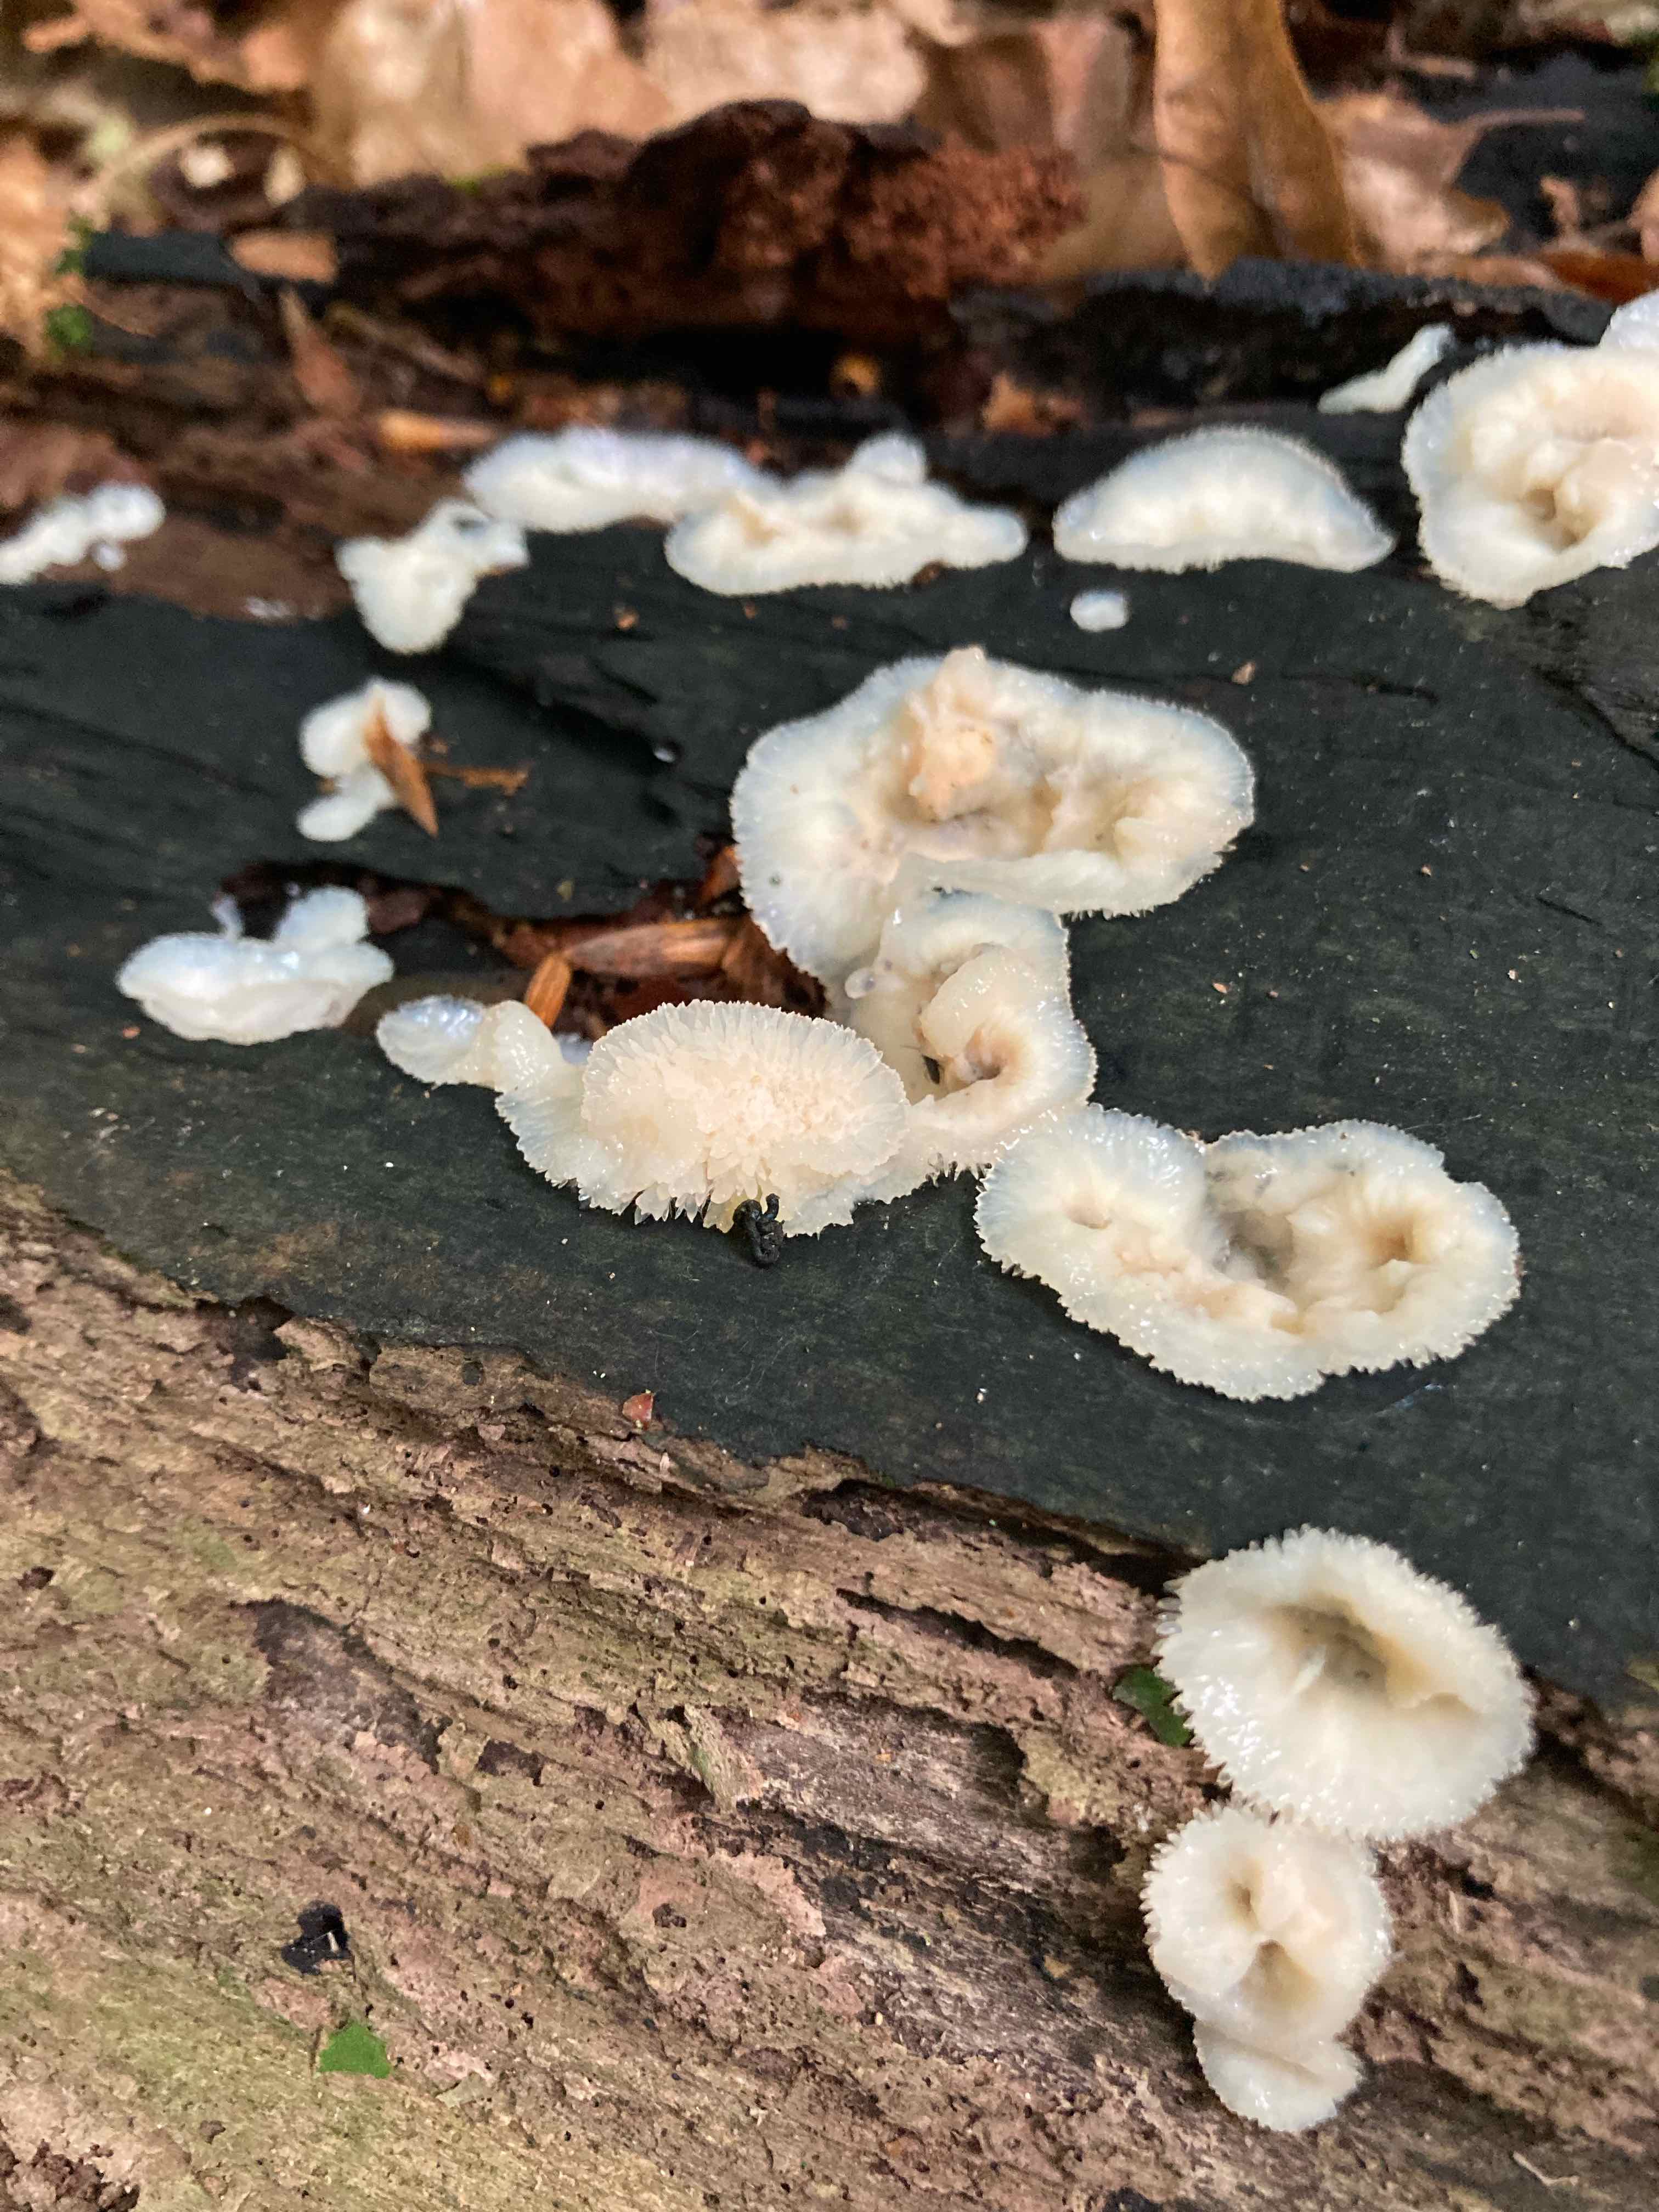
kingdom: Fungi
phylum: Basidiomycota
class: Agaricomycetes
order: Polyporales
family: Meruliaceae
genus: Phlebia
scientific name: Phlebia tremellosa
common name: bævrende åresvamp
